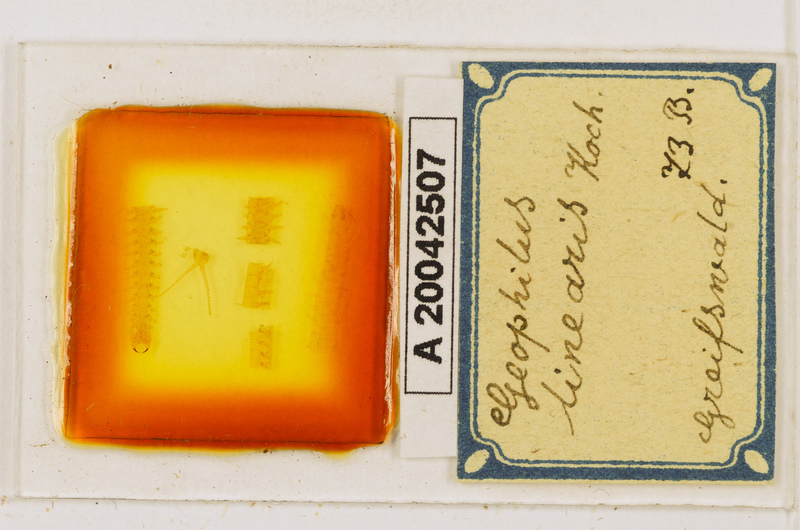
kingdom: Animalia
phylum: Arthropoda
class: Chilopoda
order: Geophilomorpha
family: Geophilidae
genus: Stenotaenia
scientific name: Stenotaenia linearis
